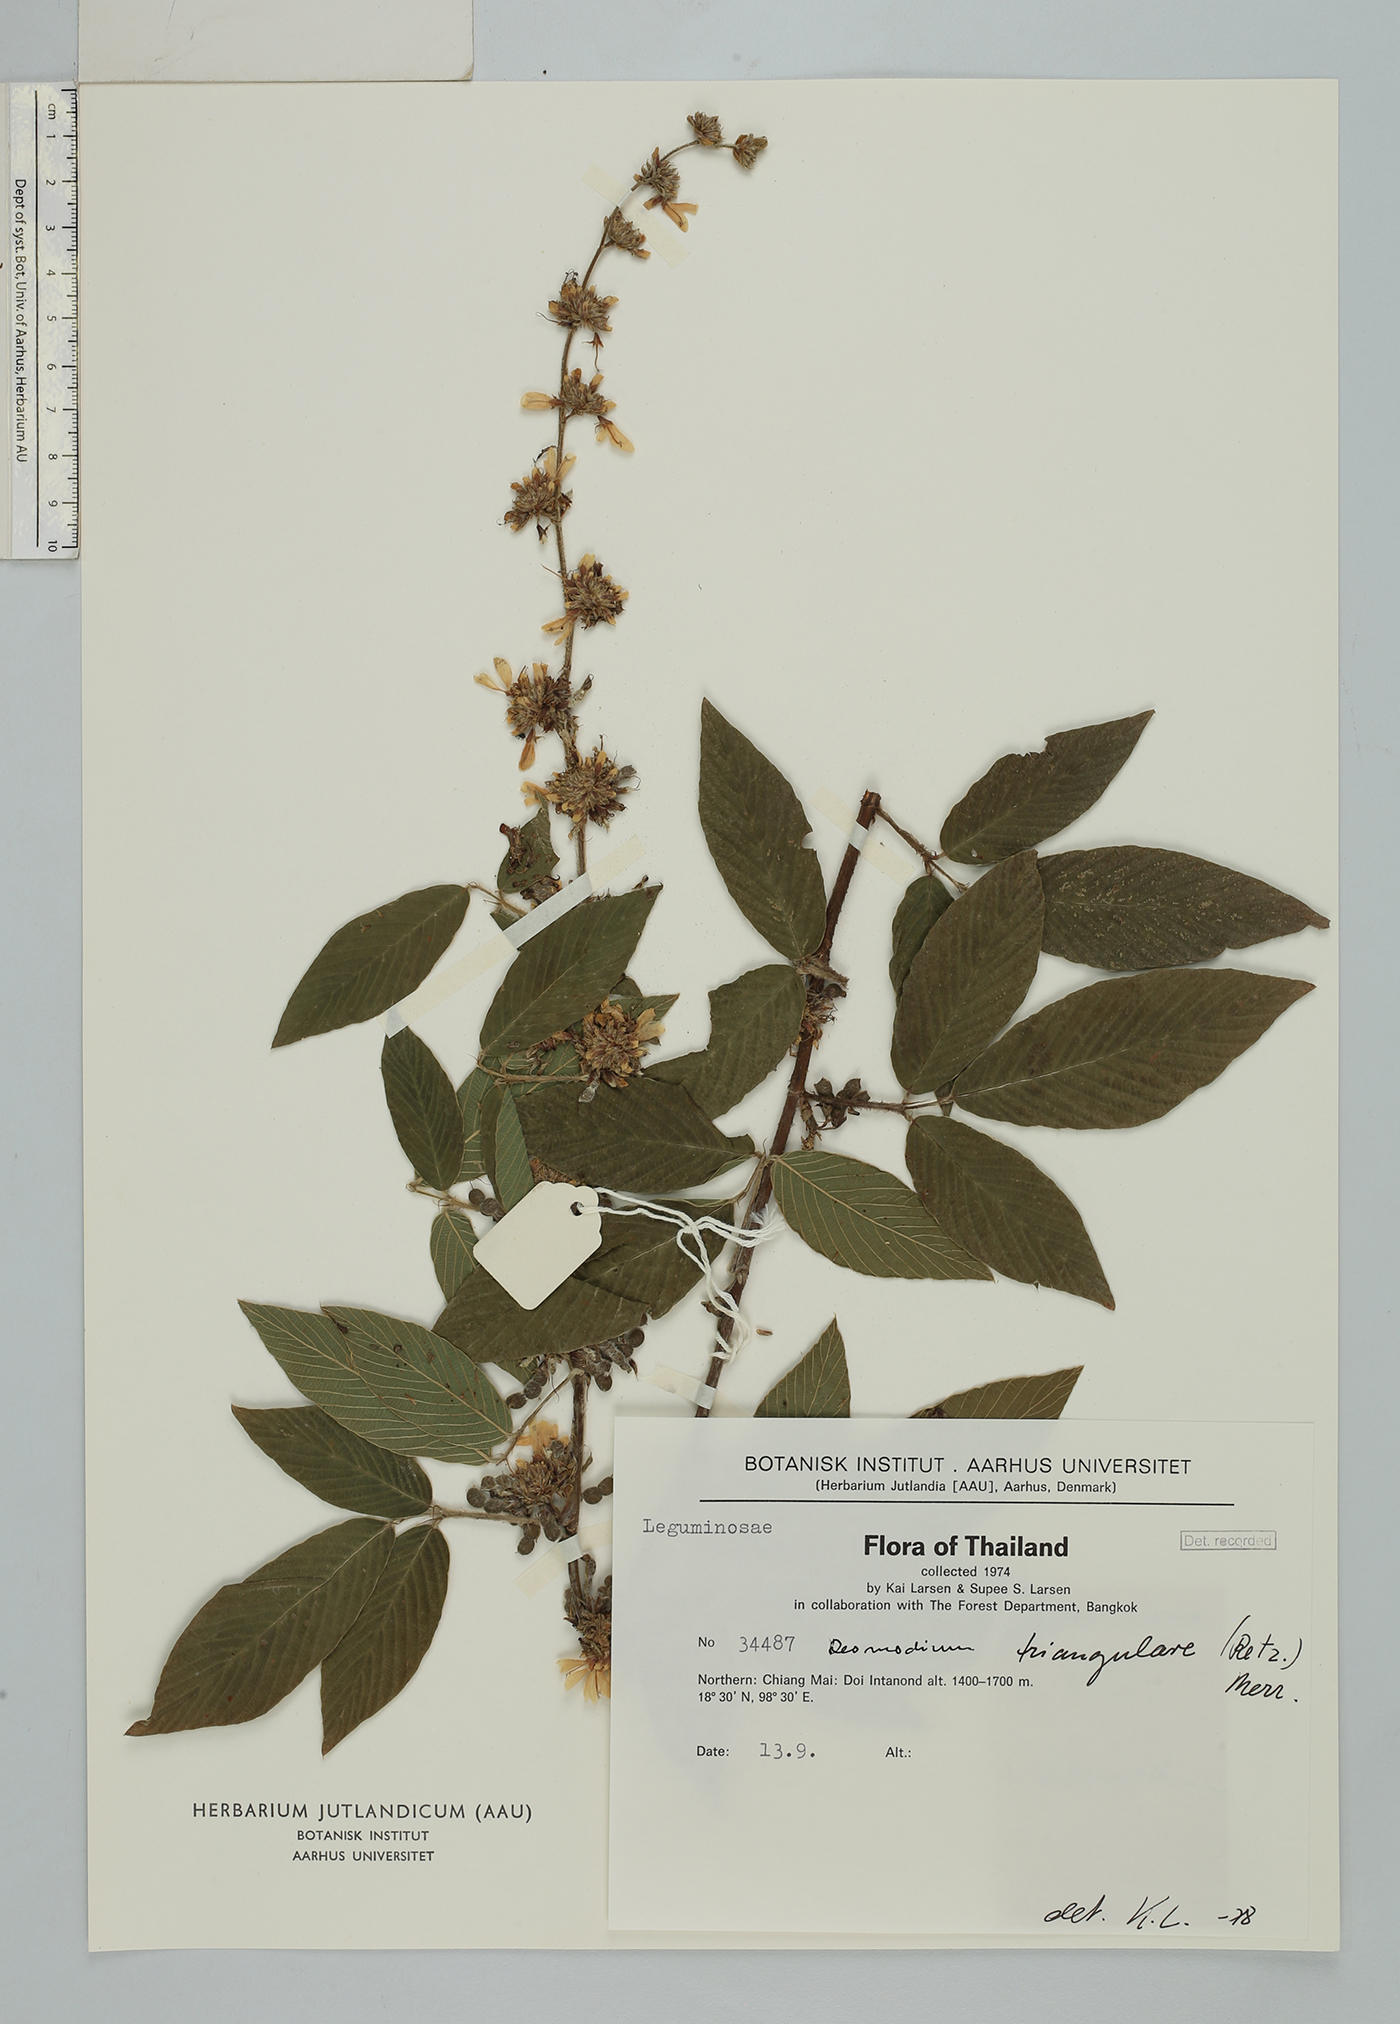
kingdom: Plantae
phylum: Tracheophyta
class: Magnoliopsida
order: Fabales
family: Fabaceae
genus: Dendrolobium
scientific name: Dendrolobium triangulare
